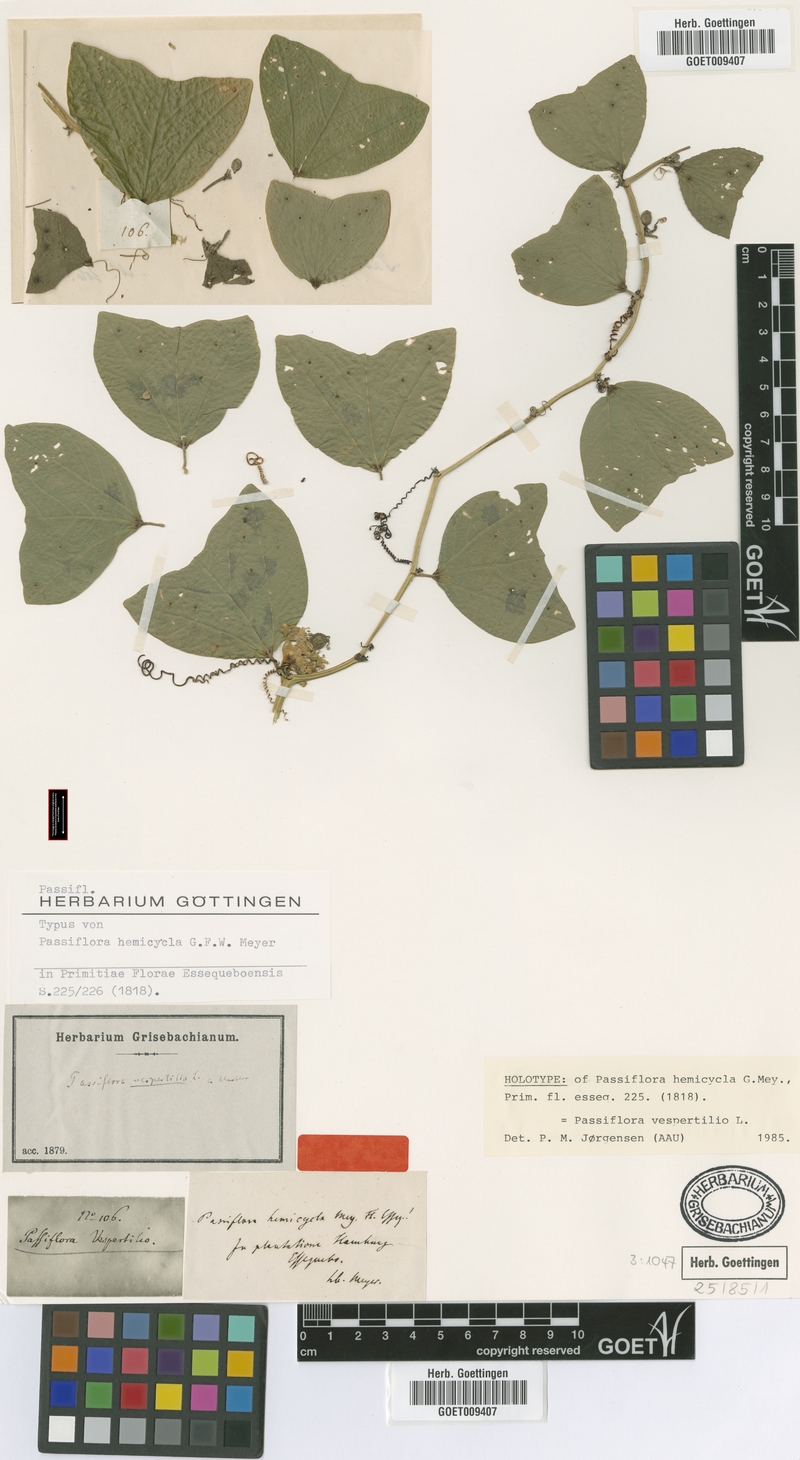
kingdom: Plantae
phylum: Tracheophyta
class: Magnoliopsida
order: Malpighiales
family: Passifloraceae
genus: Passiflora
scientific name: Passiflora vespertilio
